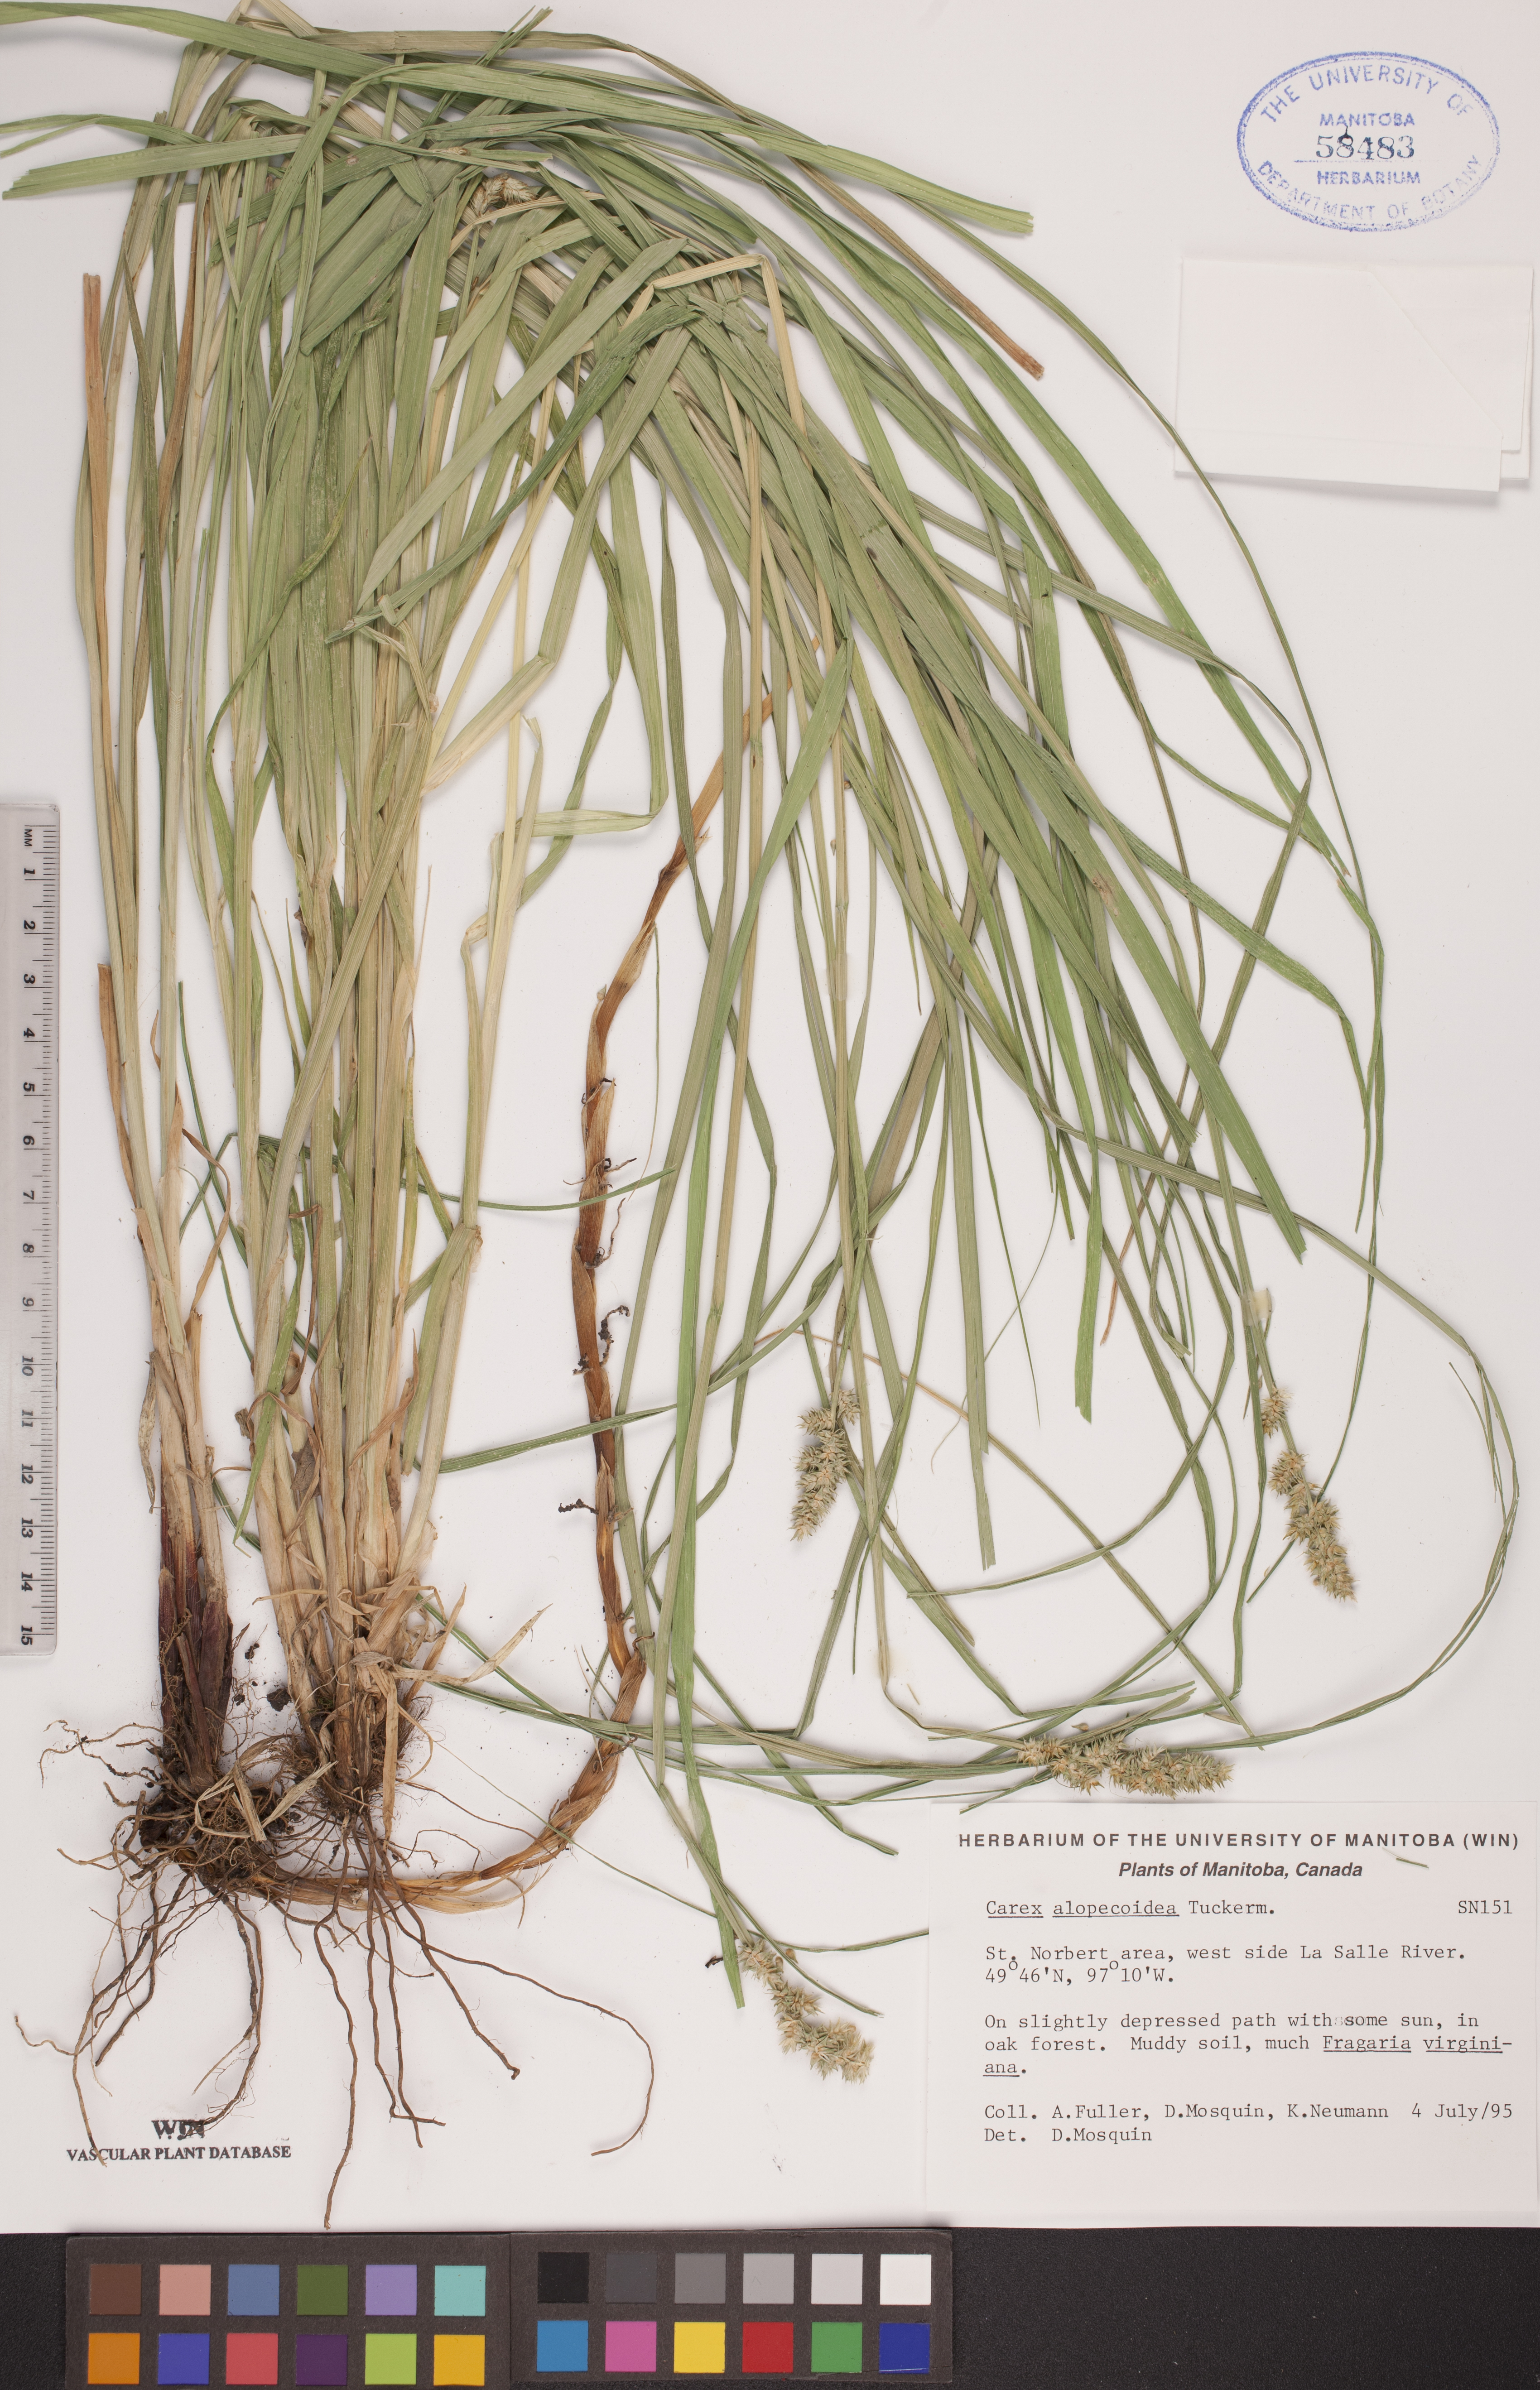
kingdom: Plantae
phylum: Tracheophyta
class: Liliopsida
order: Poales
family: Cyperaceae
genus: Carex
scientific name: Carex alopecoidea
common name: Brown-headed fox sedge
